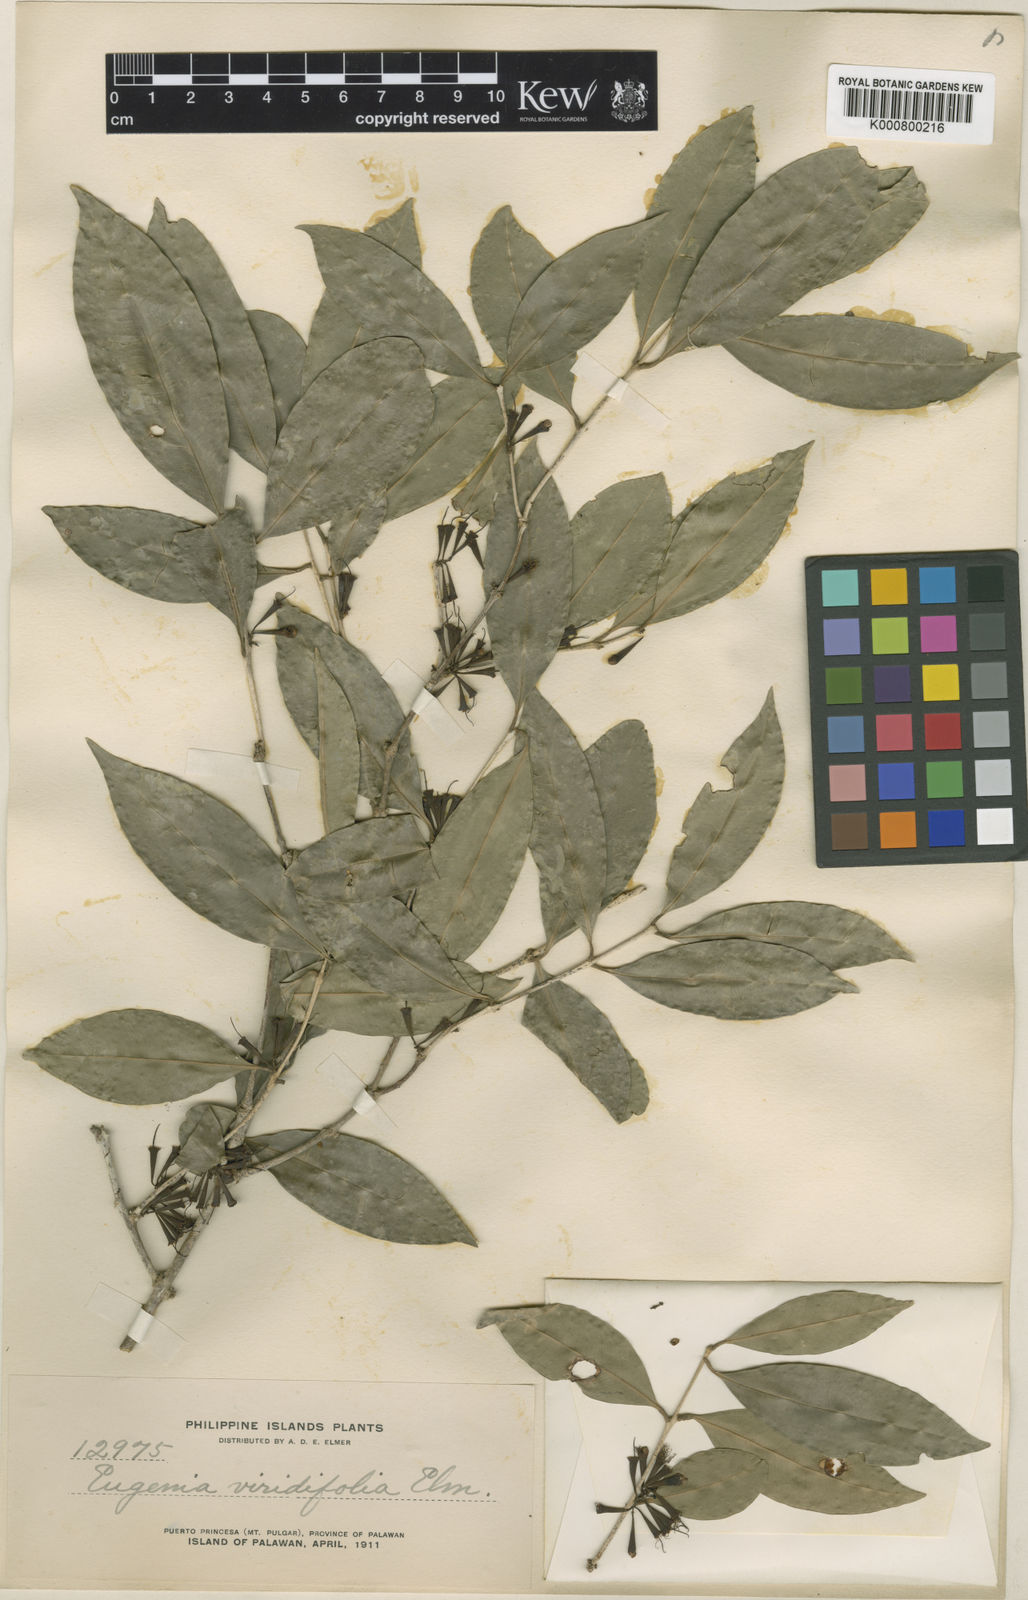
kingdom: Plantae
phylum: Tracheophyta
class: Magnoliopsida
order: Myrtales
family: Myrtaceae
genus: Syzygium
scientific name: Syzygium claviflorum
